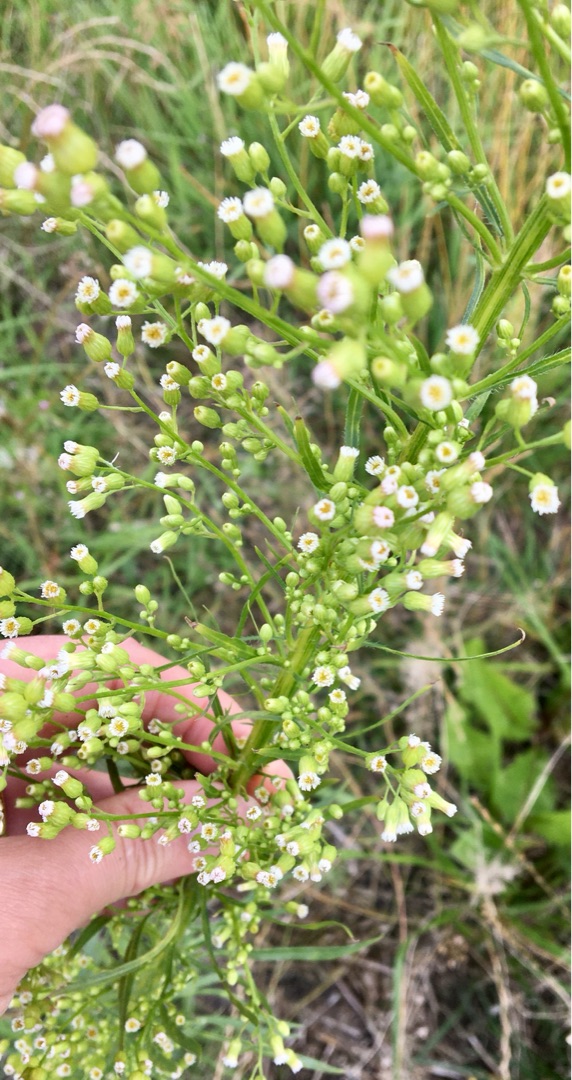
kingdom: Plantae
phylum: Tracheophyta
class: Magnoliopsida
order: Asterales
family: Asteraceae
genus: Erigeron
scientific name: Erigeron canadensis
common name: Kanadisk bakkestjerne
